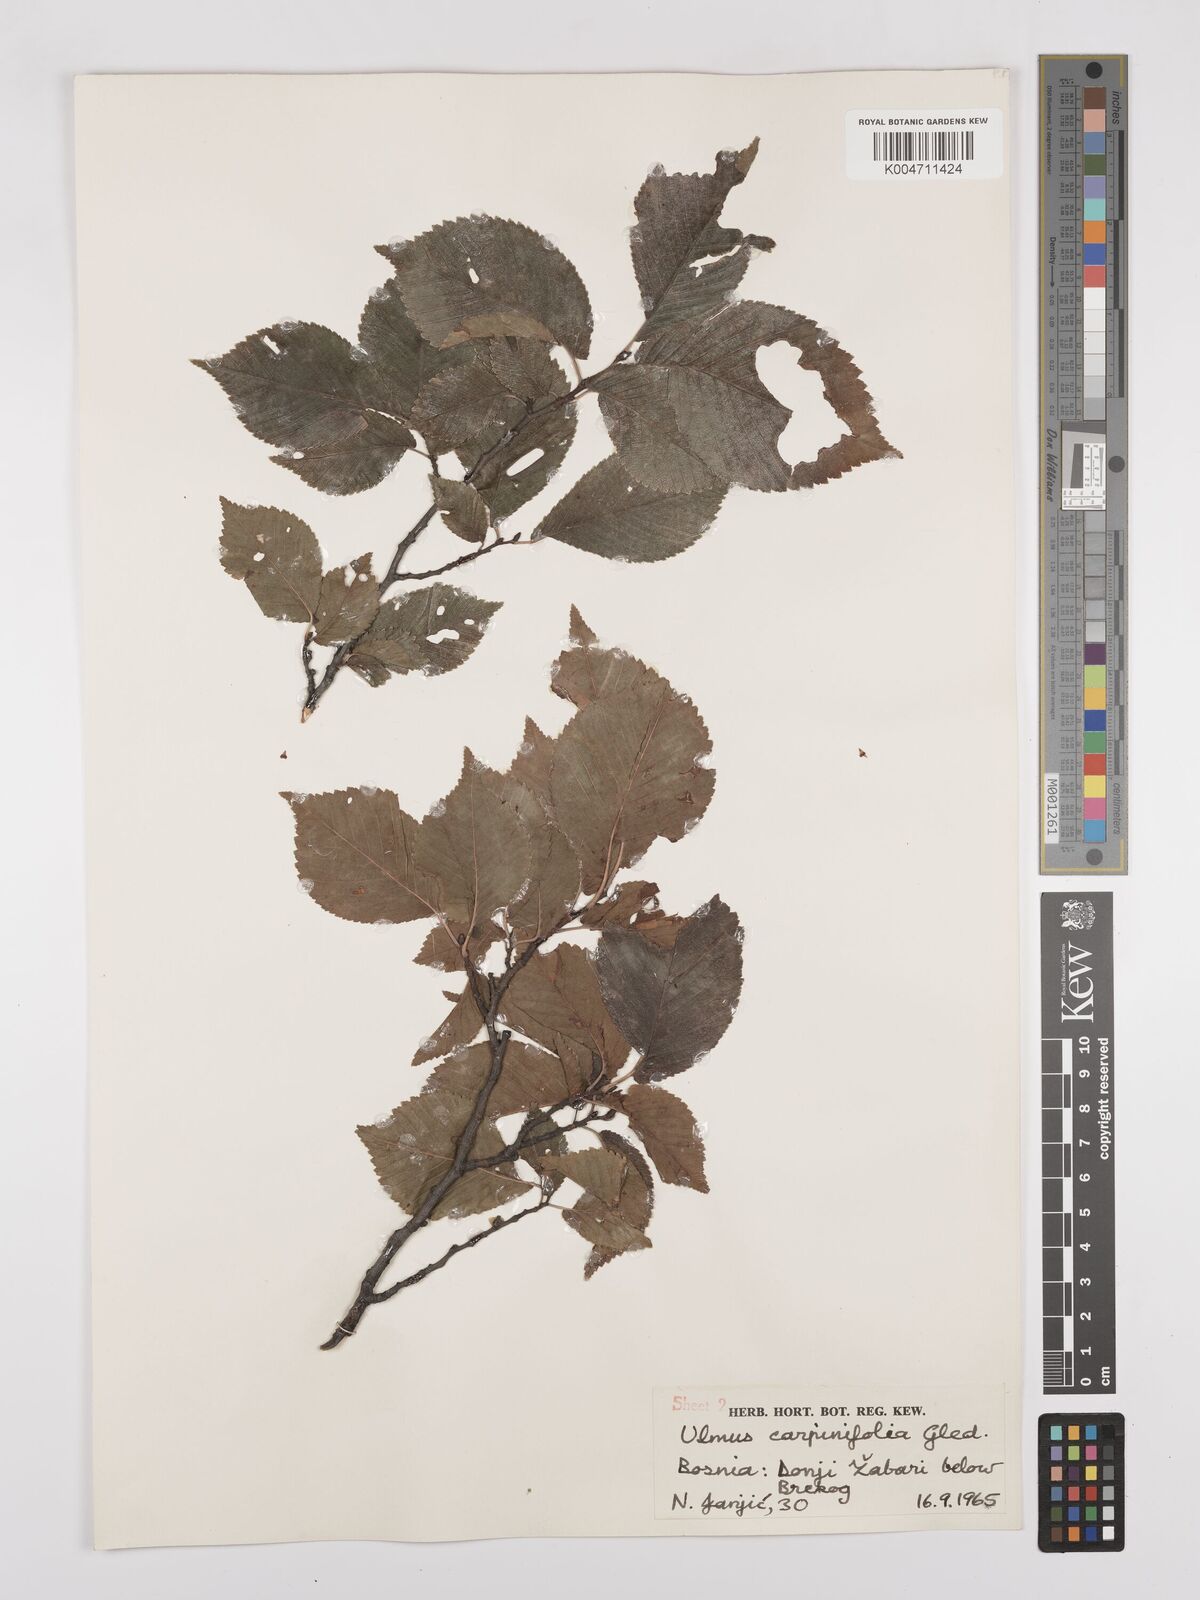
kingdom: Plantae
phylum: Tracheophyta
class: Magnoliopsida
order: Rosales
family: Ulmaceae
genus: Ulmus
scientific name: Ulmus minor
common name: Small-leaved elm
